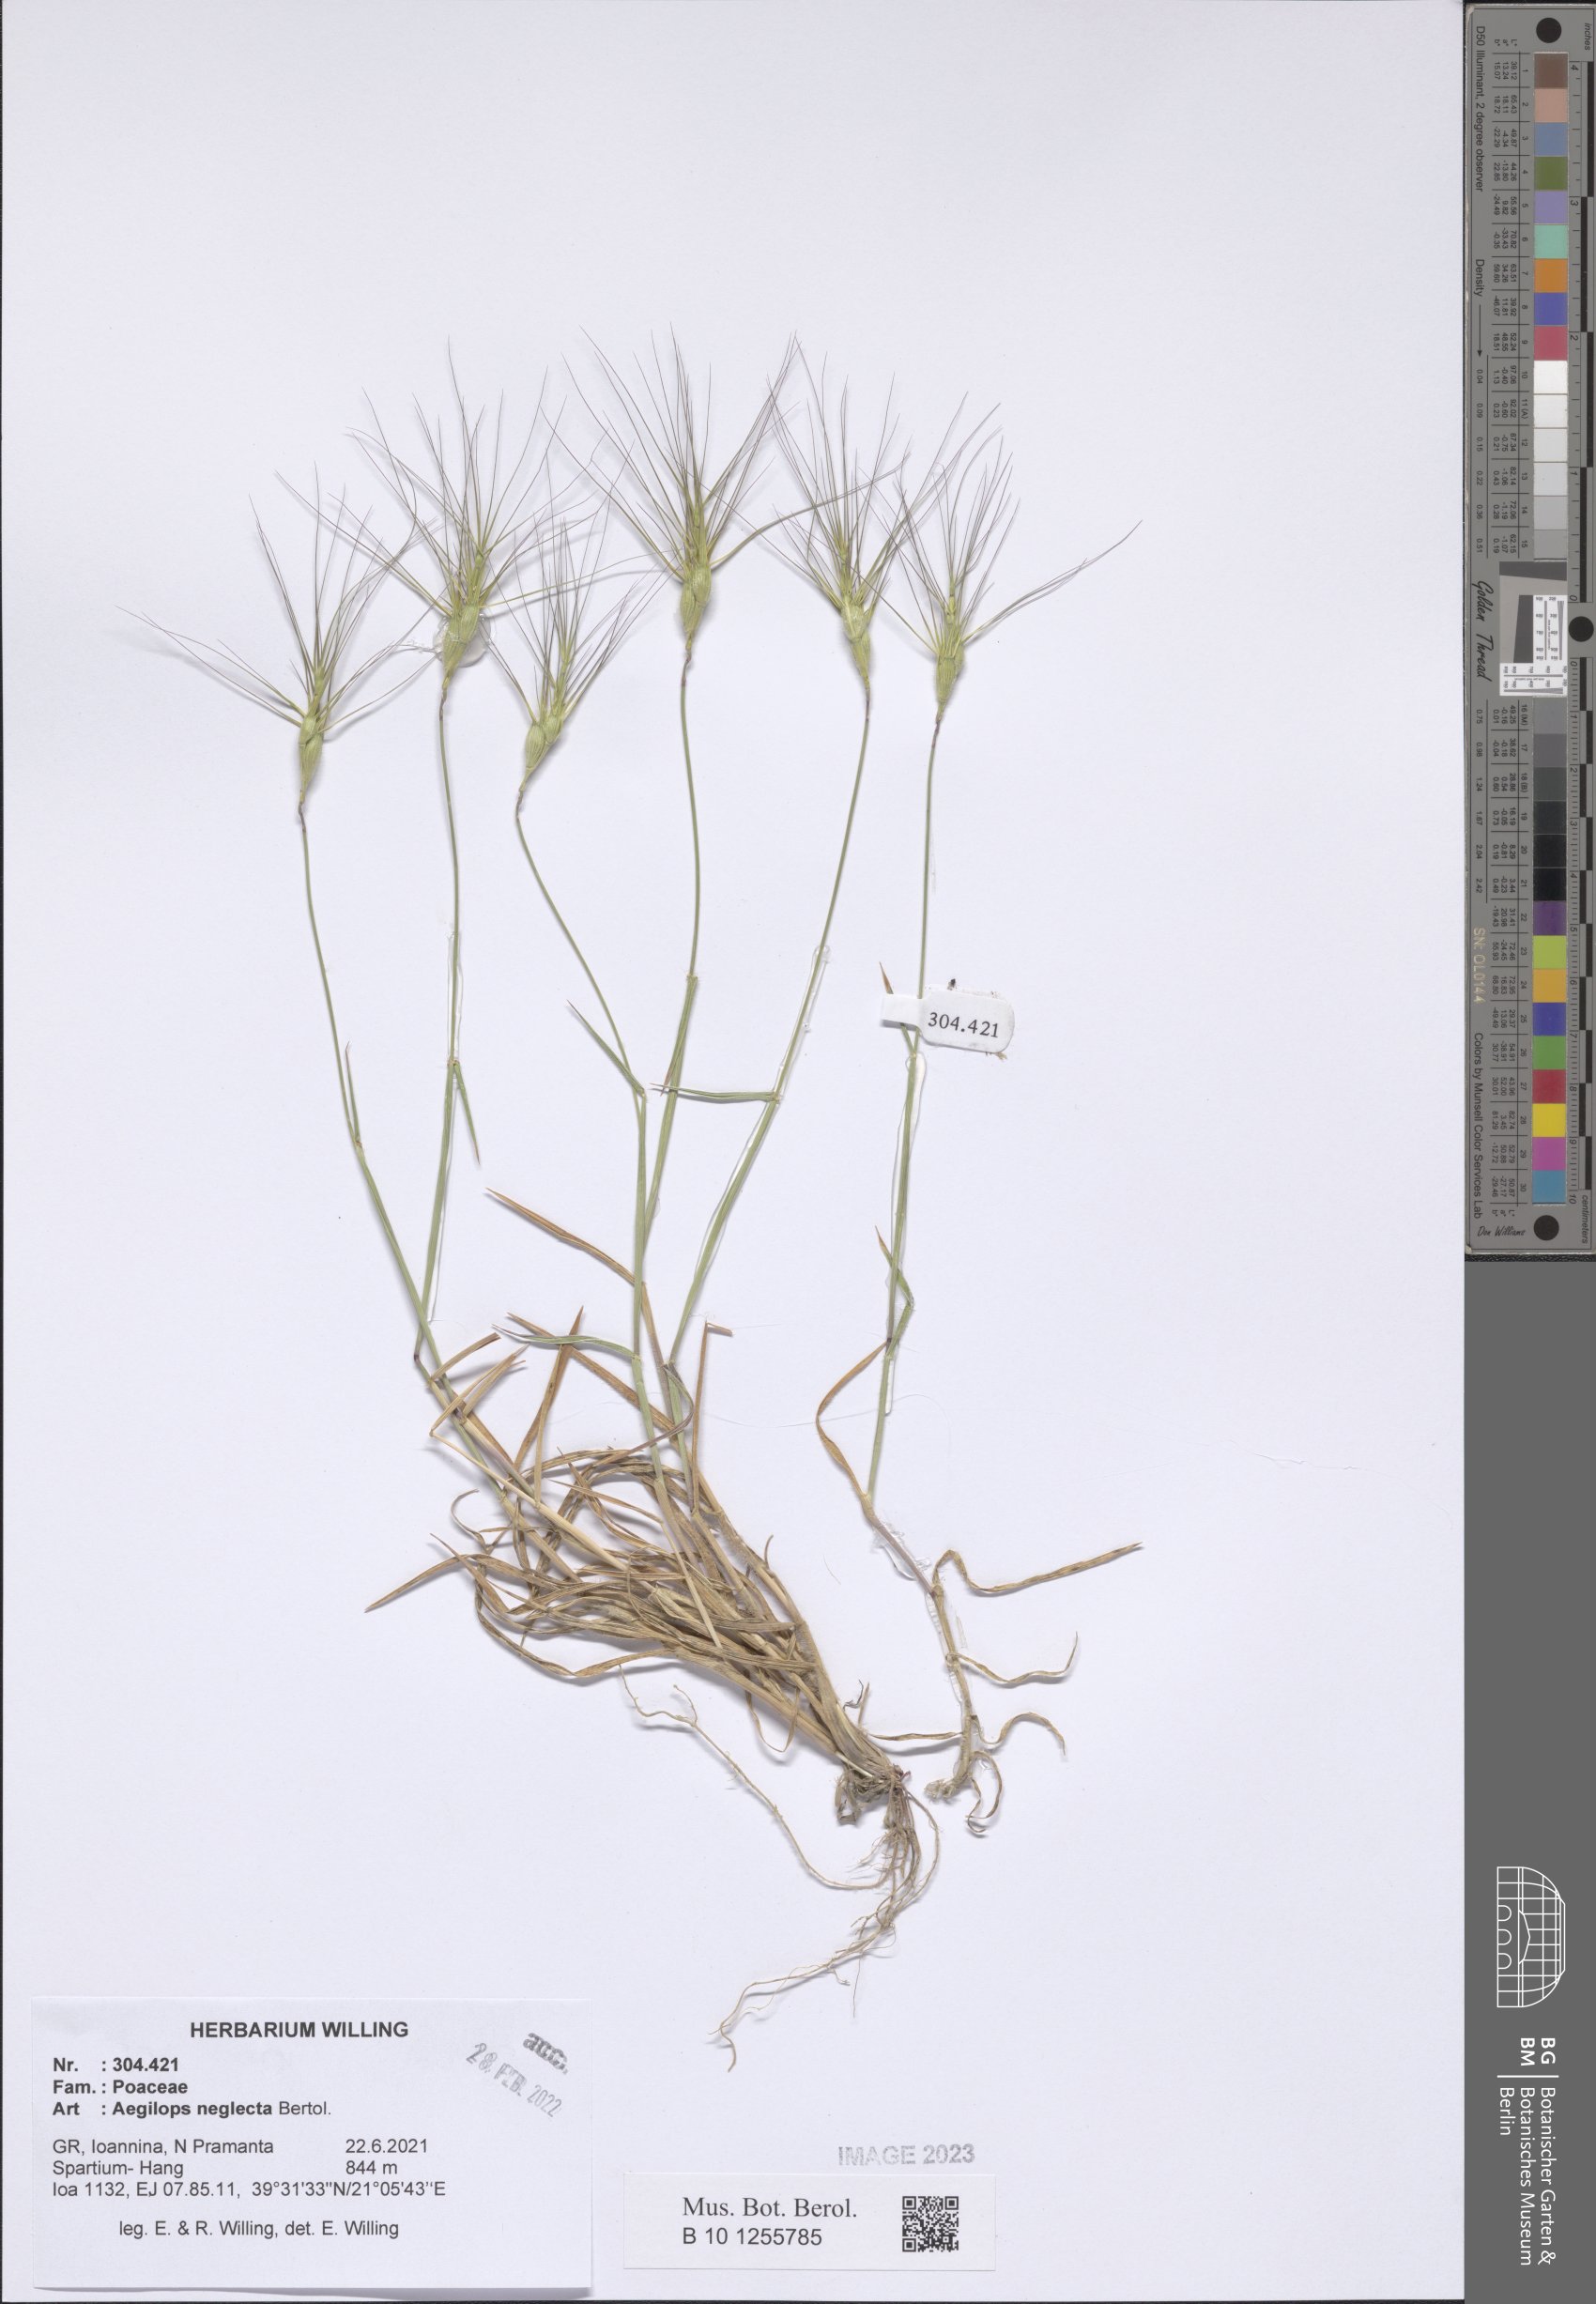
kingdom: Plantae
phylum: Tracheophyta
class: Liliopsida
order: Poales
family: Poaceae
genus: Aegilops
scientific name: Aegilops neglecta
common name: Three-awn goat grass
